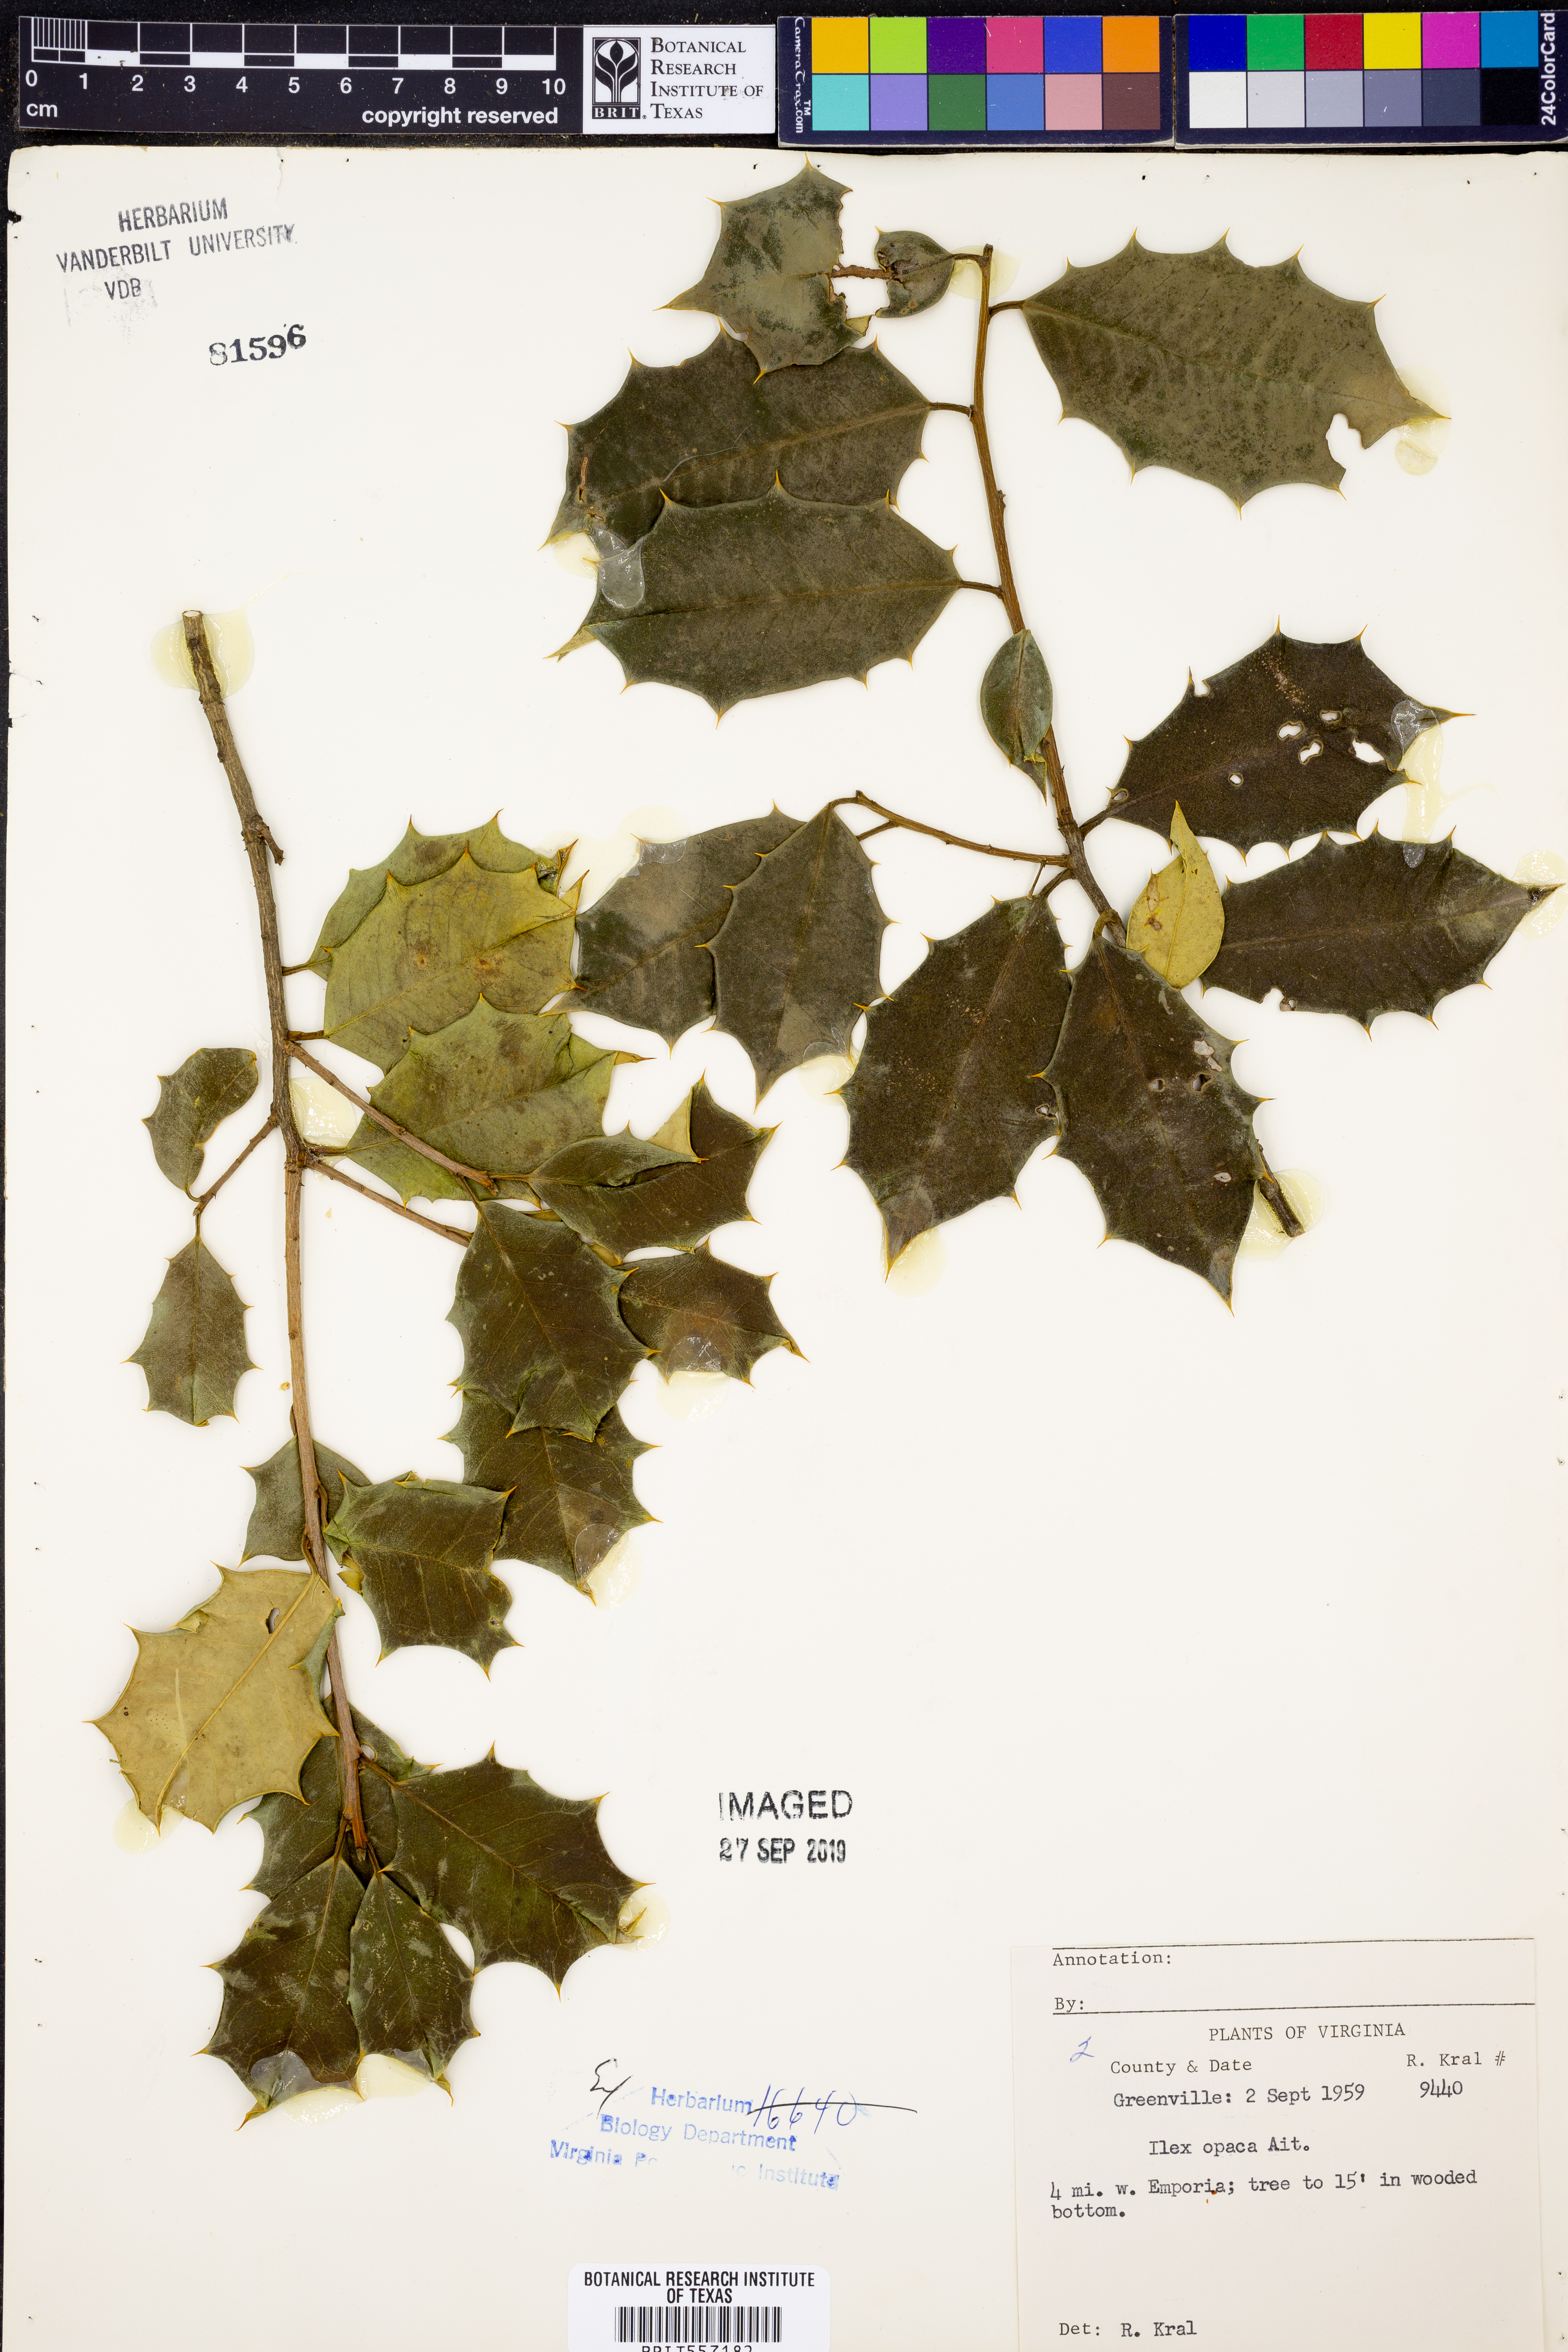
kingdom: Plantae
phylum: Tracheophyta
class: Magnoliopsida
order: Aquifoliales
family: Aquifoliaceae
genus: Ilex
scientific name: Ilex opaca
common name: American holly
